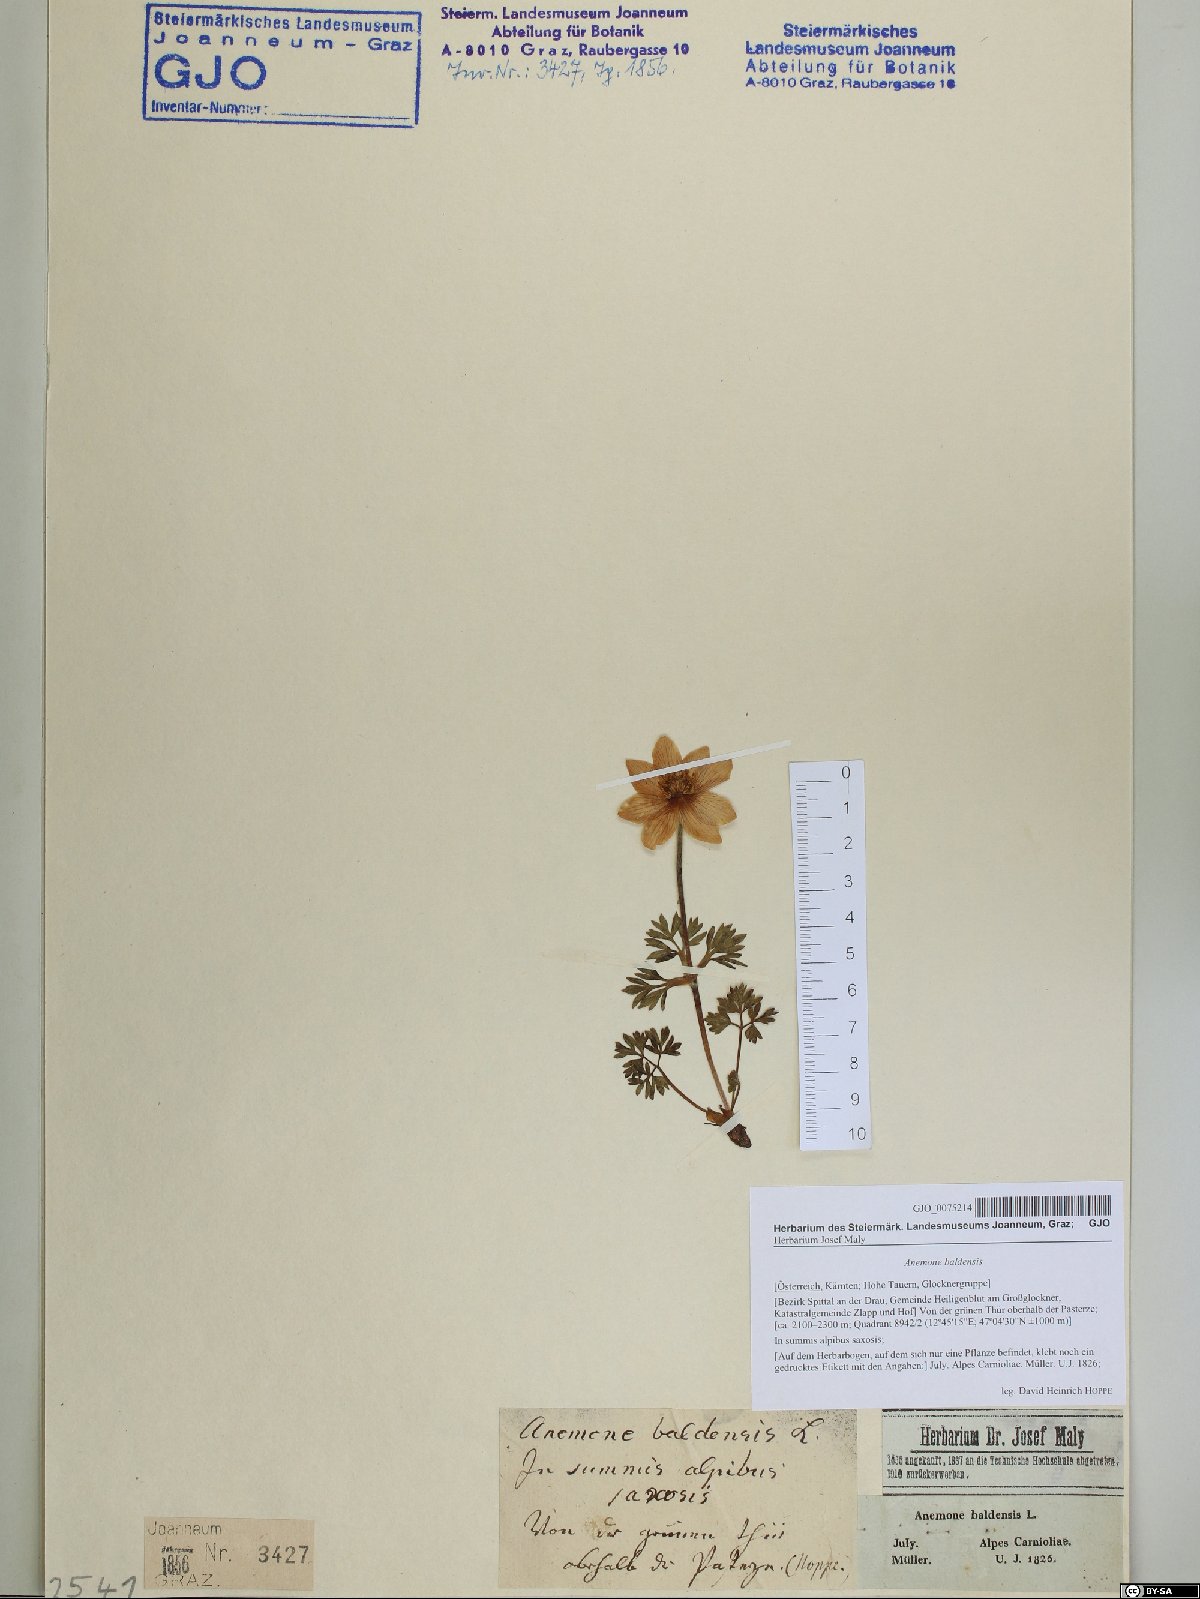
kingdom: Plantae
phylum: Tracheophyta
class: Magnoliopsida
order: Ranunculales
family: Ranunculaceae
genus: Anemone
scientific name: Anemone baldensis
